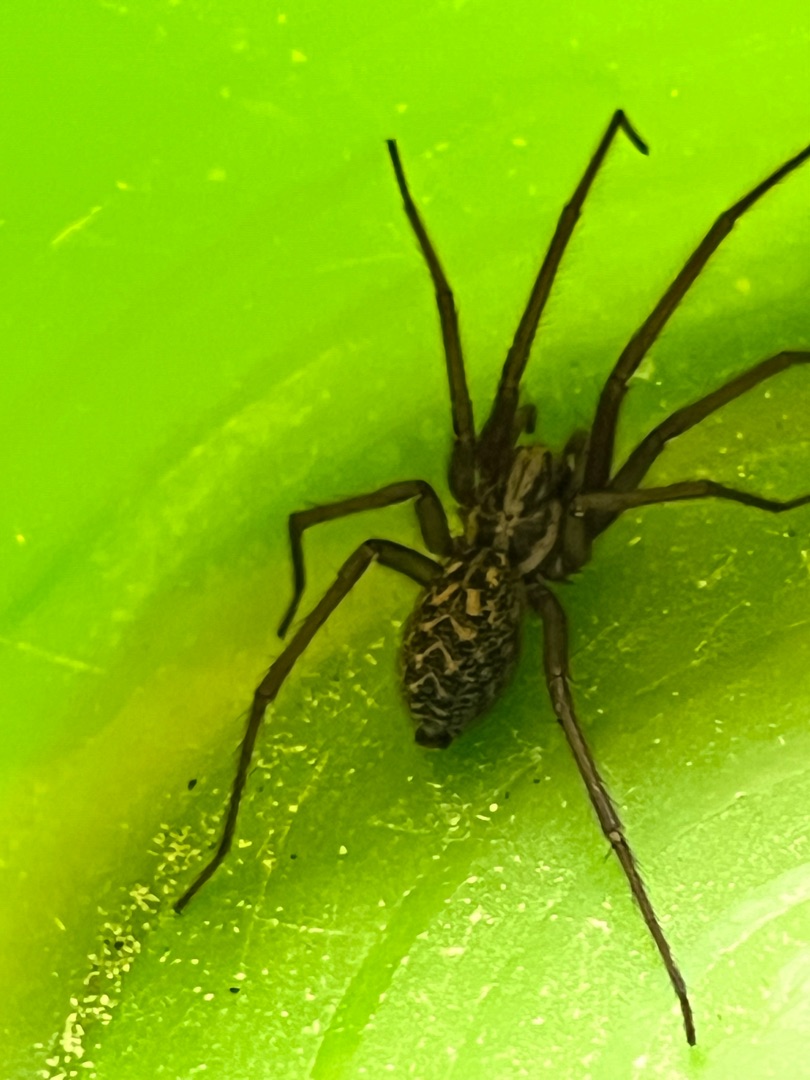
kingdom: Animalia
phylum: Arthropoda
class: Arachnida
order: Araneae
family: Agelenidae
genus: Eratigena
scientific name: Eratigena atrica
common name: Stor husedderkop
